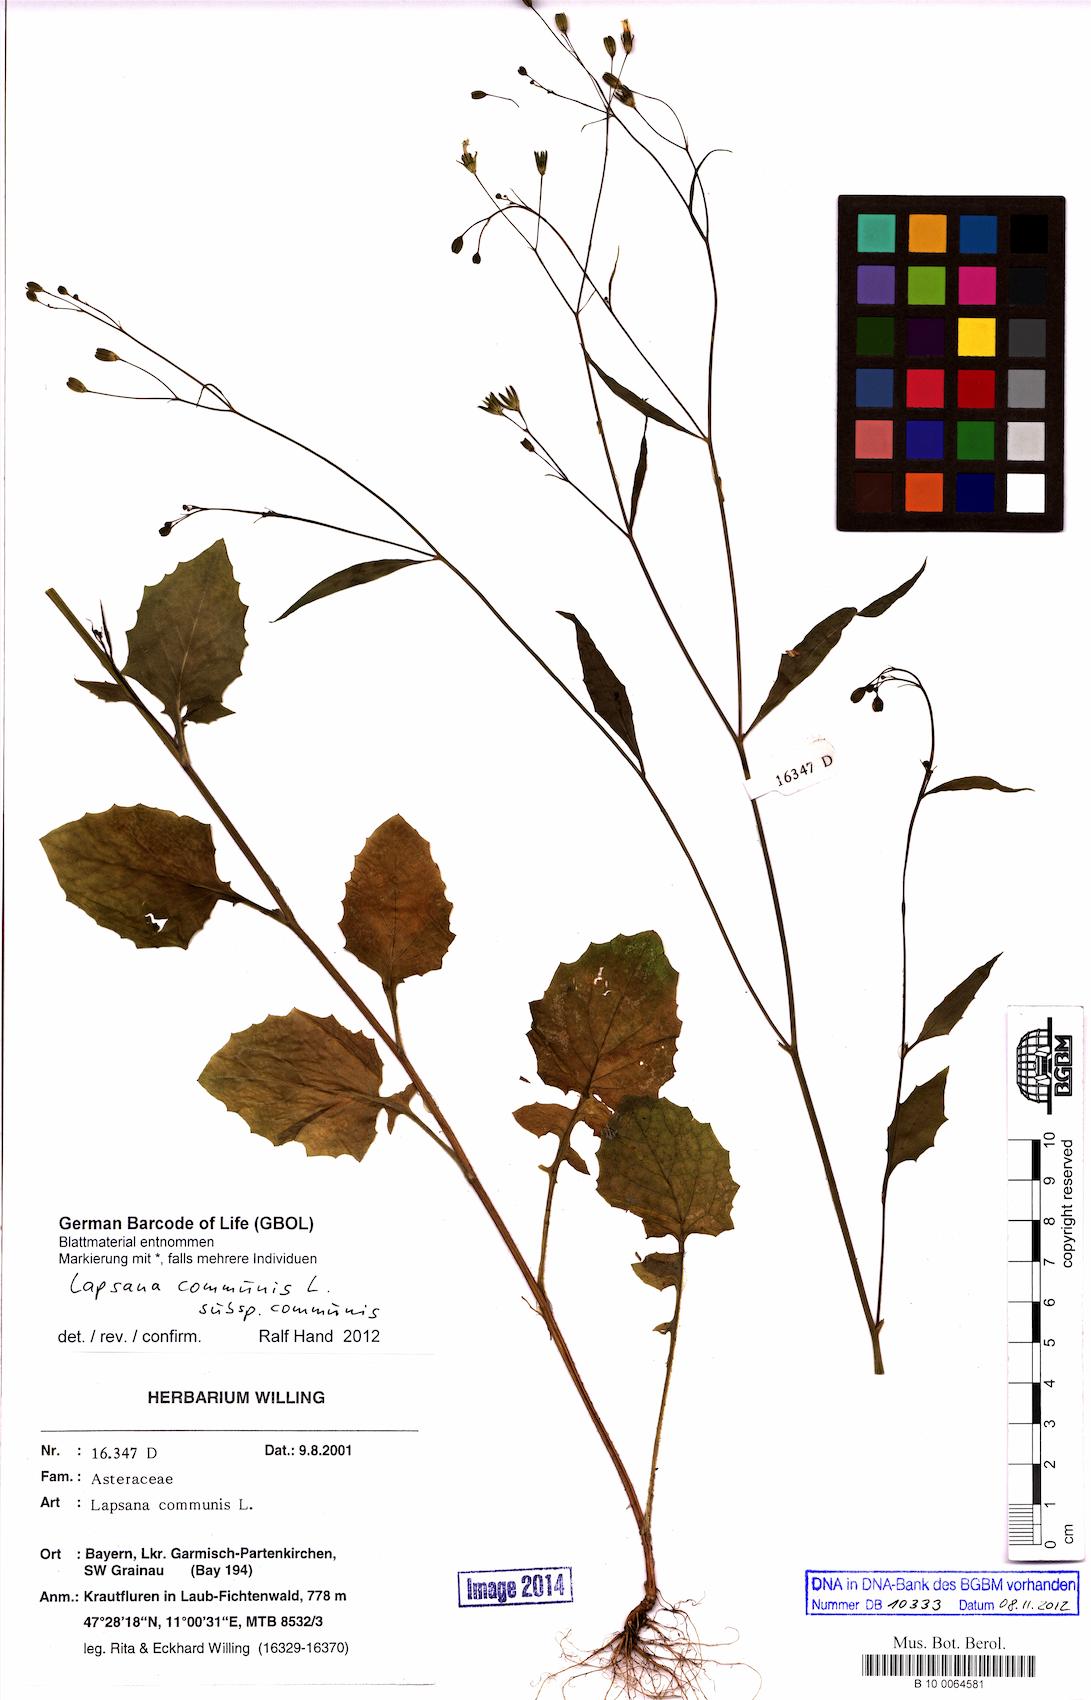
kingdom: Plantae
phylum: Tracheophyta
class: Magnoliopsida
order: Asterales
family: Asteraceae
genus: Lapsana
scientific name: Lapsana communis
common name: Nipplewort
